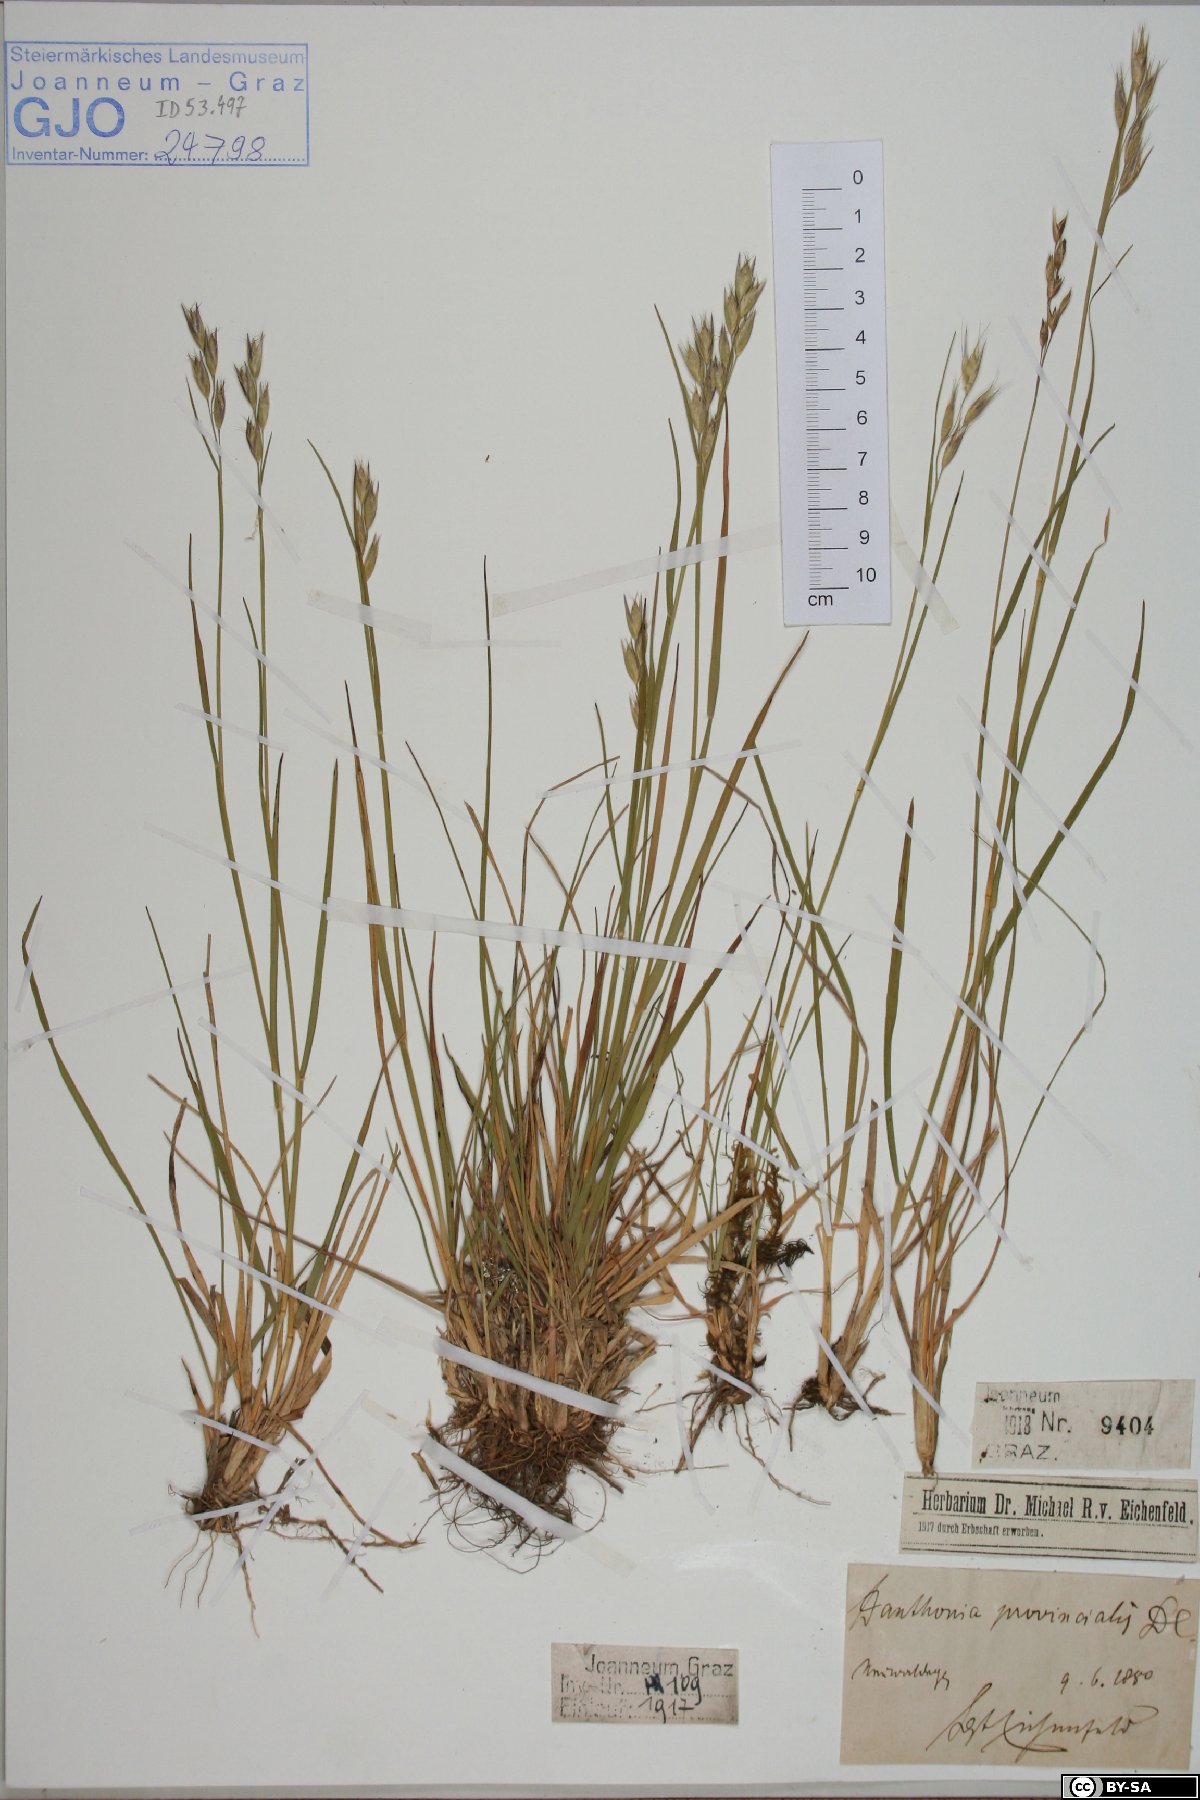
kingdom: Plantae
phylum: Tracheophyta
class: Liliopsida
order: Poales
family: Poaceae
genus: Danthonia
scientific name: Danthonia alpina
